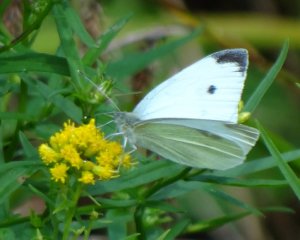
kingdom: Animalia
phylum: Arthropoda
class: Insecta
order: Lepidoptera
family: Pieridae
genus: Pieris
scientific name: Pieris rapae
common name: Cabbage White
